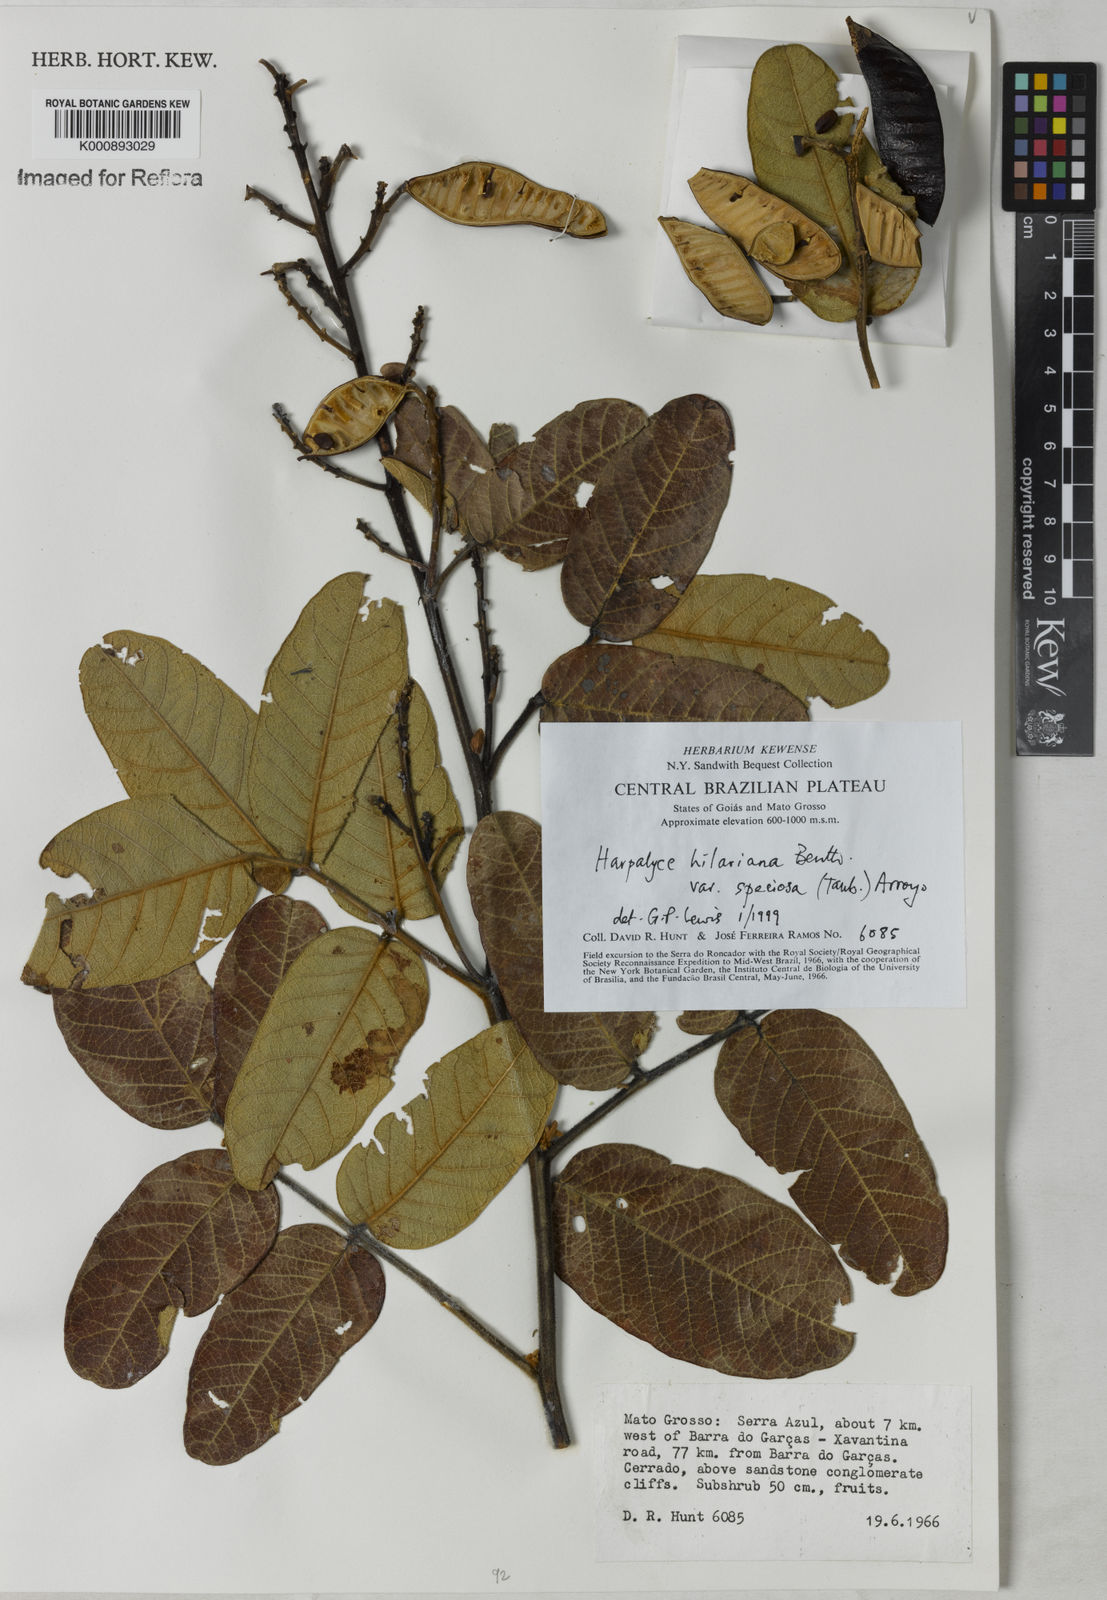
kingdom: Plantae
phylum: Tracheophyta
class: Magnoliopsida
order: Fabales
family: Fabaceae
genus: Harpalyce
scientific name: Harpalyce speciosa
